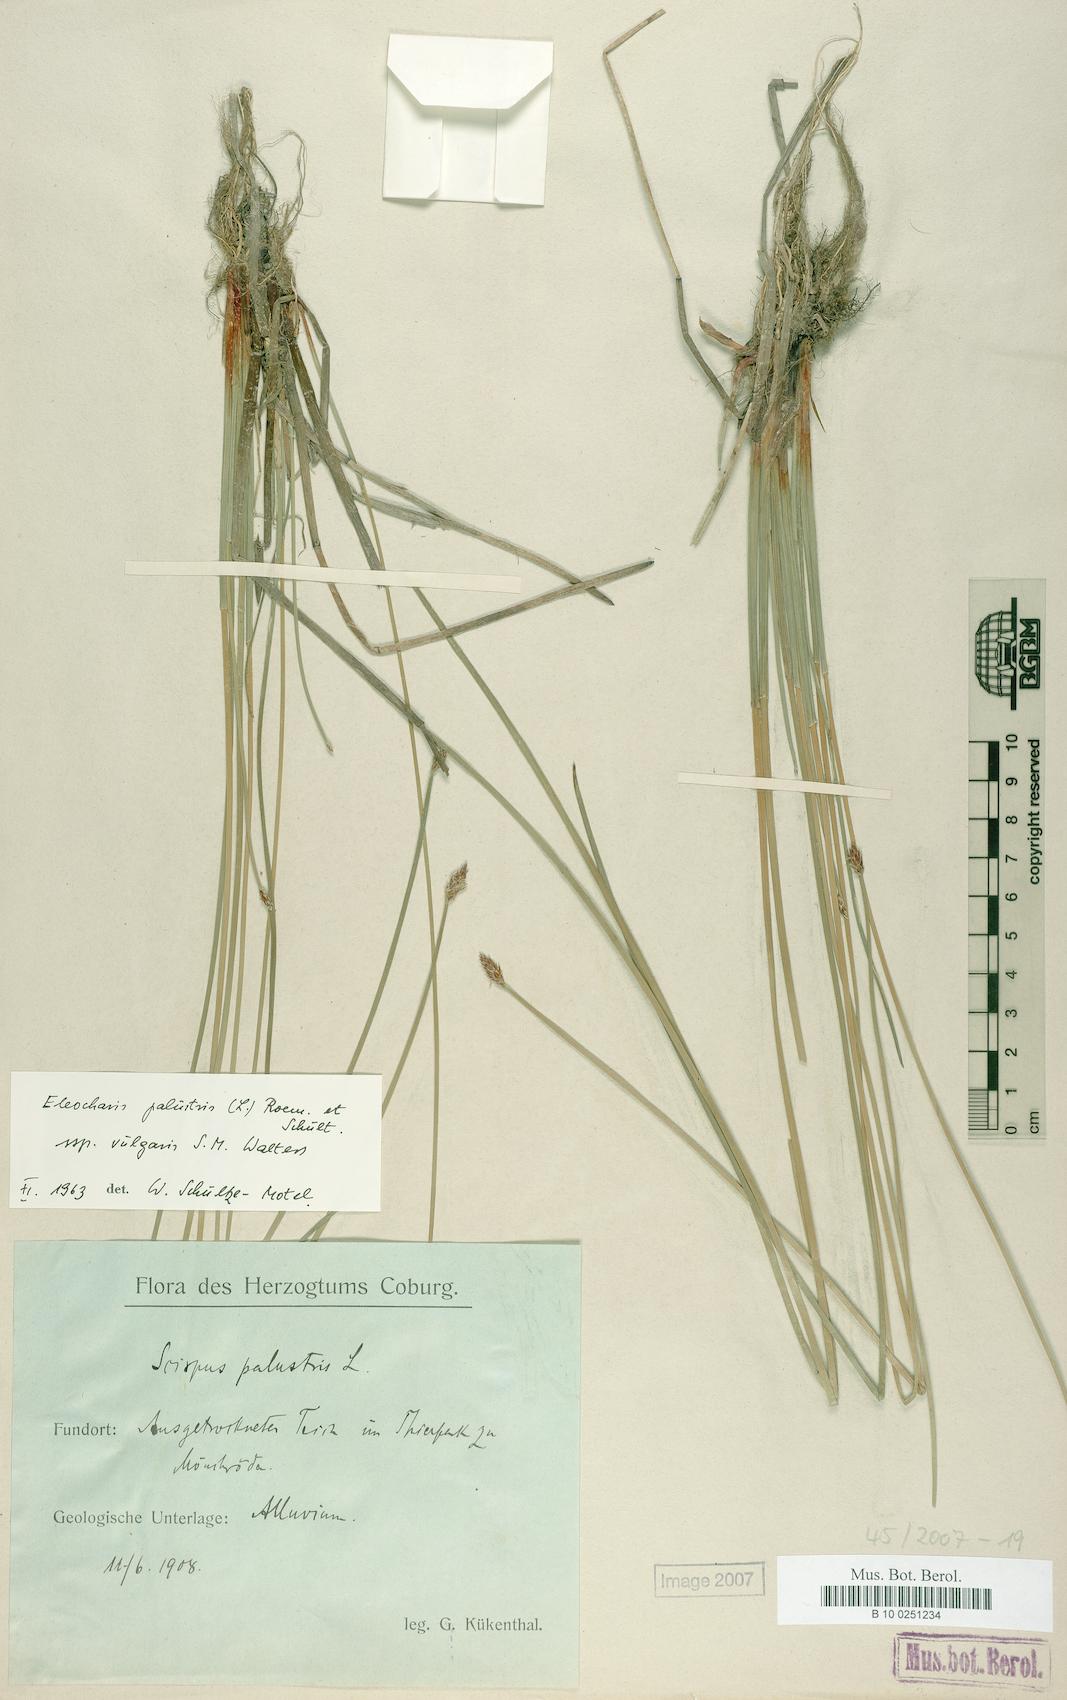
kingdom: Plantae
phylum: Tracheophyta
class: Liliopsida
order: Poales
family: Cyperaceae
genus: Eleocharis
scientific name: Eleocharis palustris
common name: Common spike-rush
